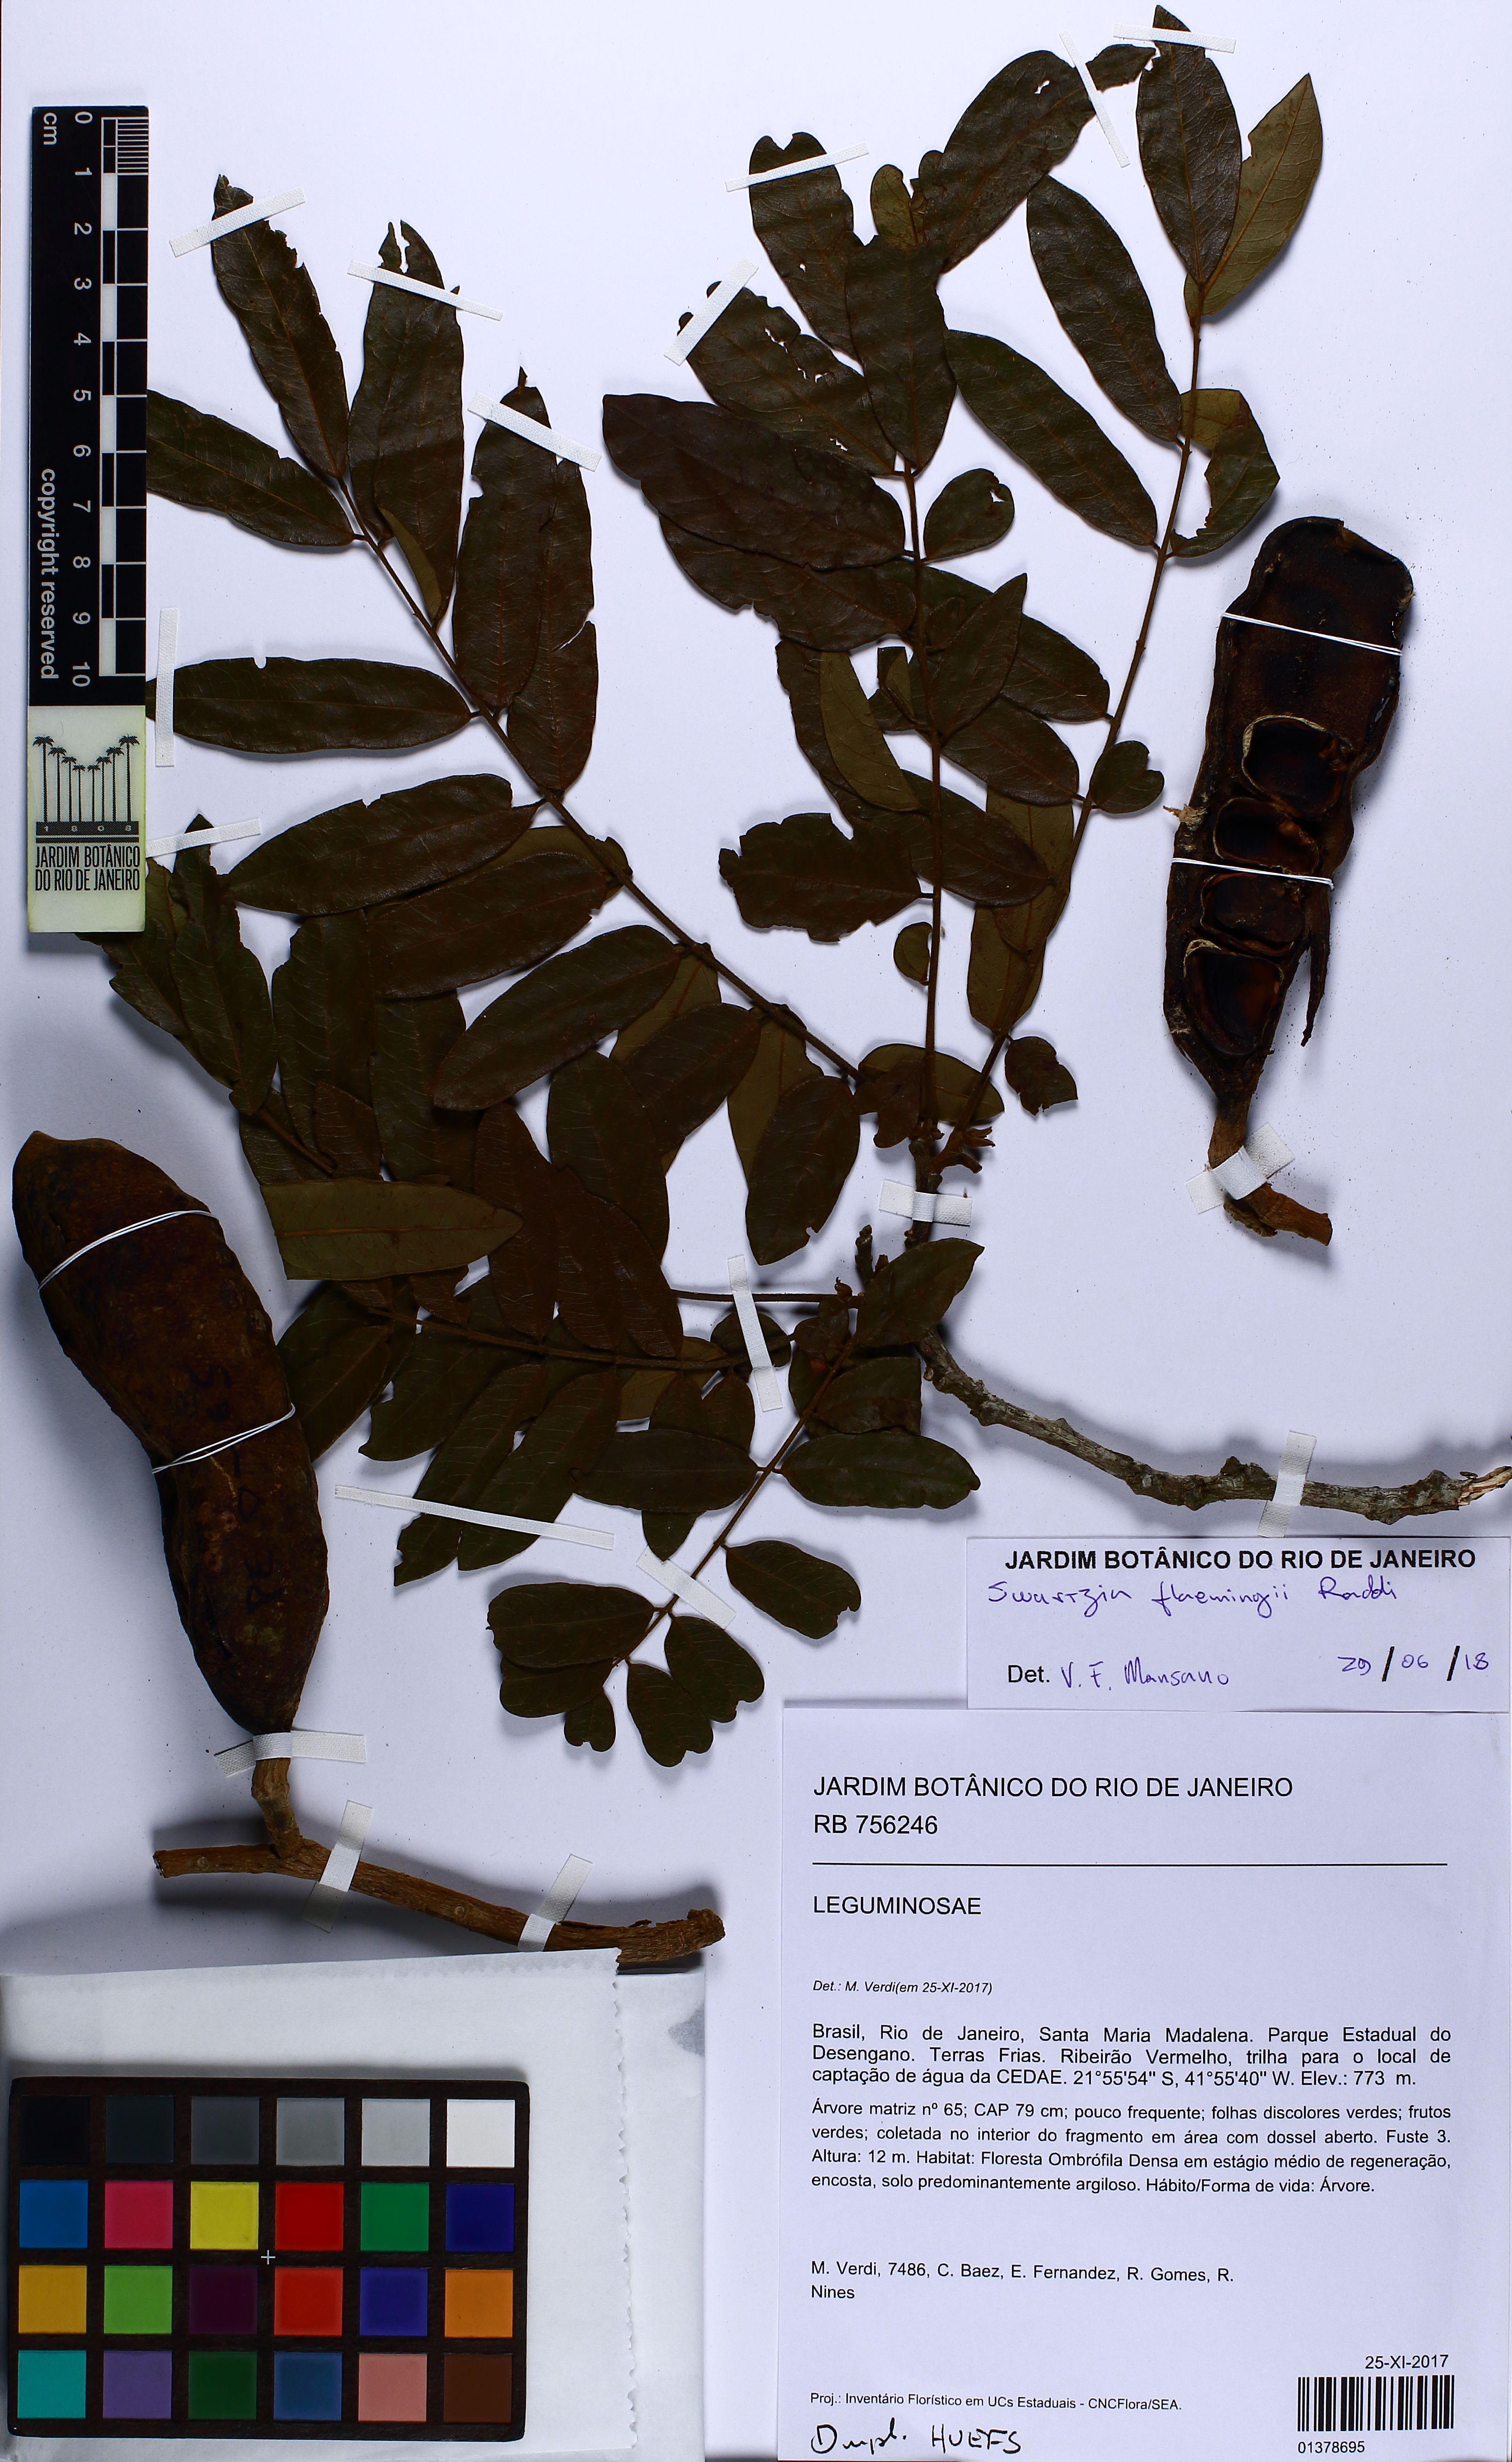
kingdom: Plantae
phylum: Tracheophyta
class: Magnoliopsida
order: Fabales
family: Fabaceae
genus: Swartzia
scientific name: Swartzia flaemingii
